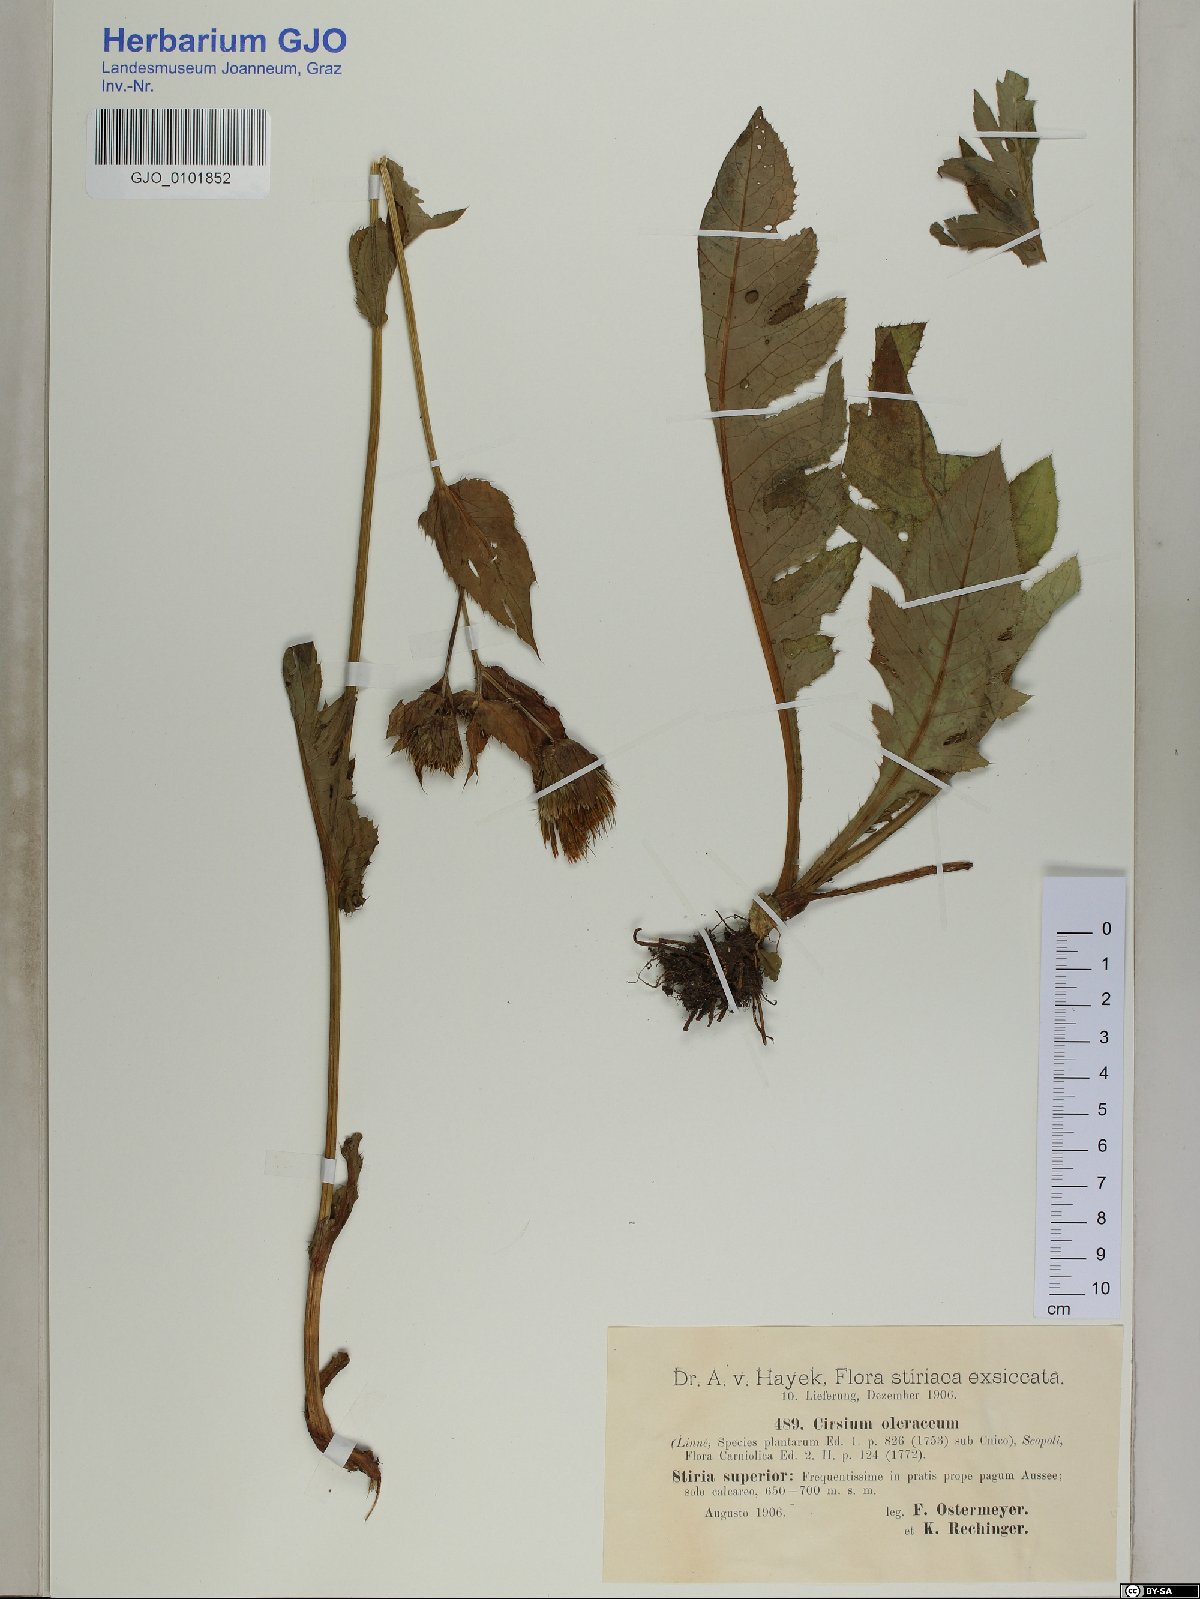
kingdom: Plantae
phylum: Tracheophyta
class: Magnoliopsida
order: Asterales
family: Asteraceae
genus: Cirsium
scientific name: Cirsium oleraceum
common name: Cabbage thistle
